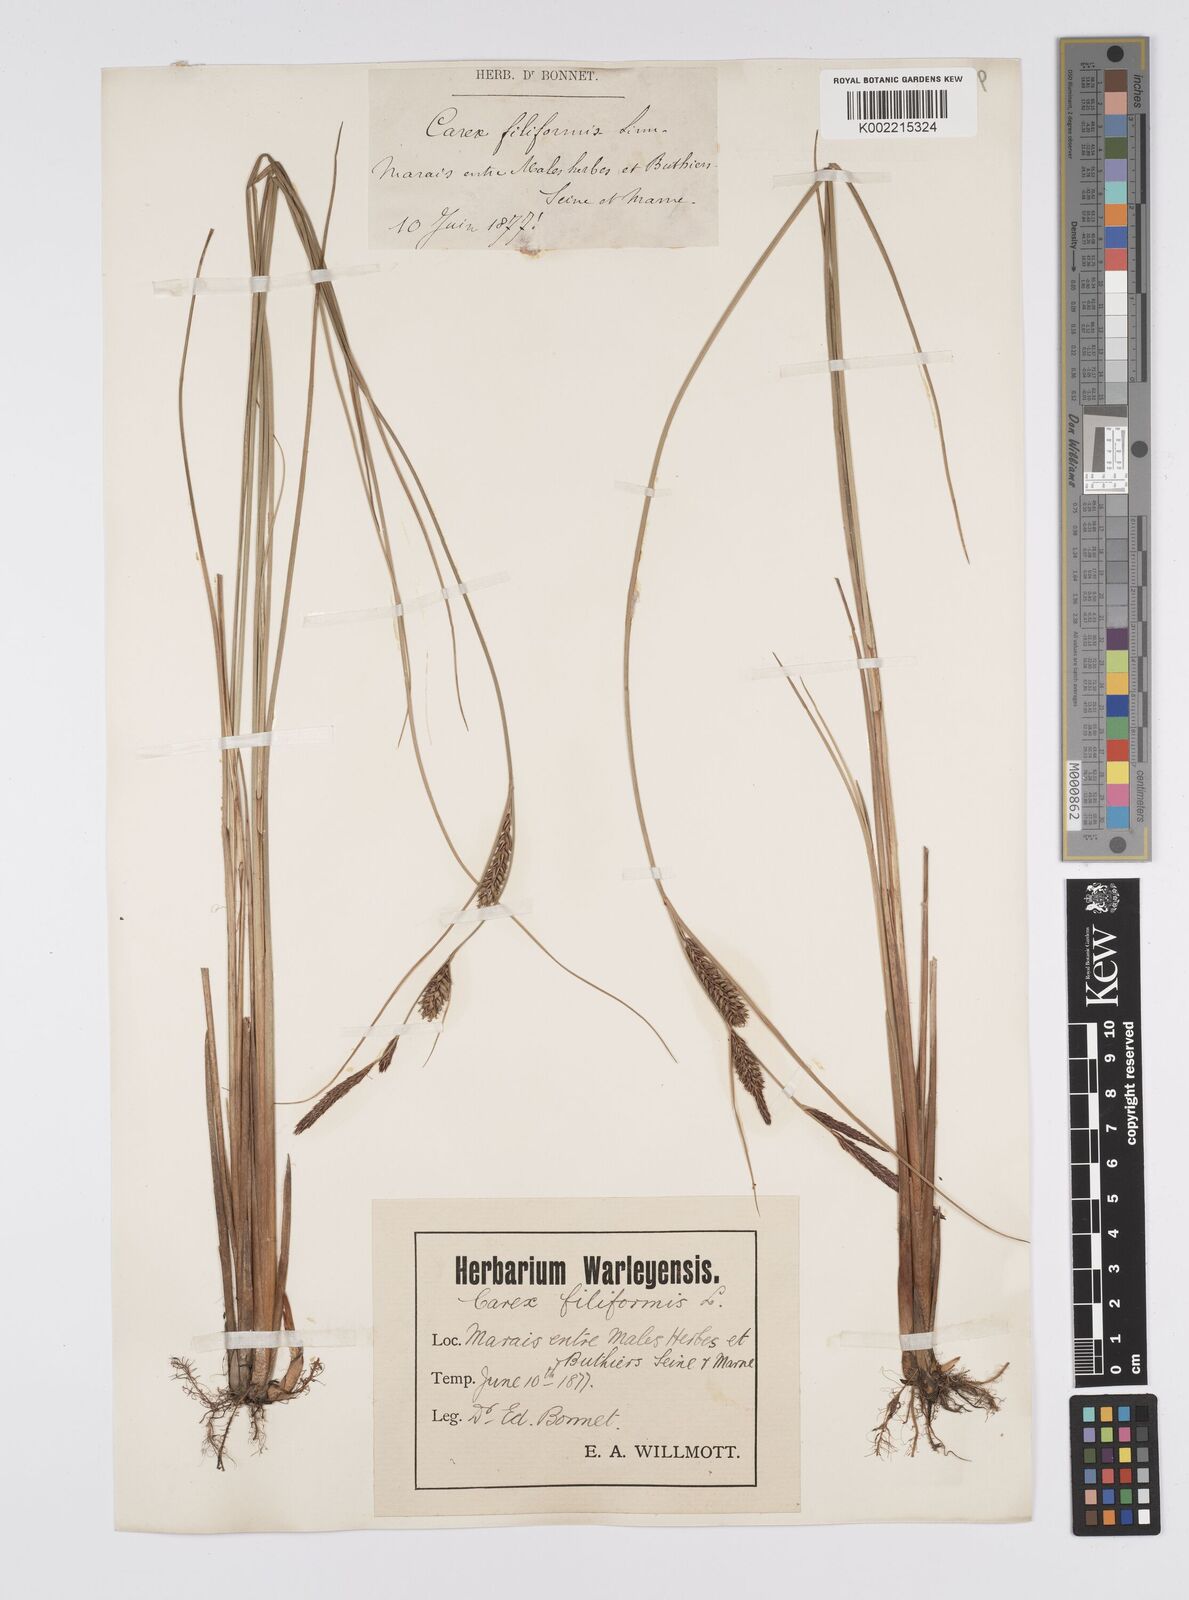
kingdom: Plantae
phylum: Tracheophyta
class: Liliopsida
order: Poales
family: Cyperaceae
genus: Carex
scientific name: Carex lasiocarpa
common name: Slender sedge
